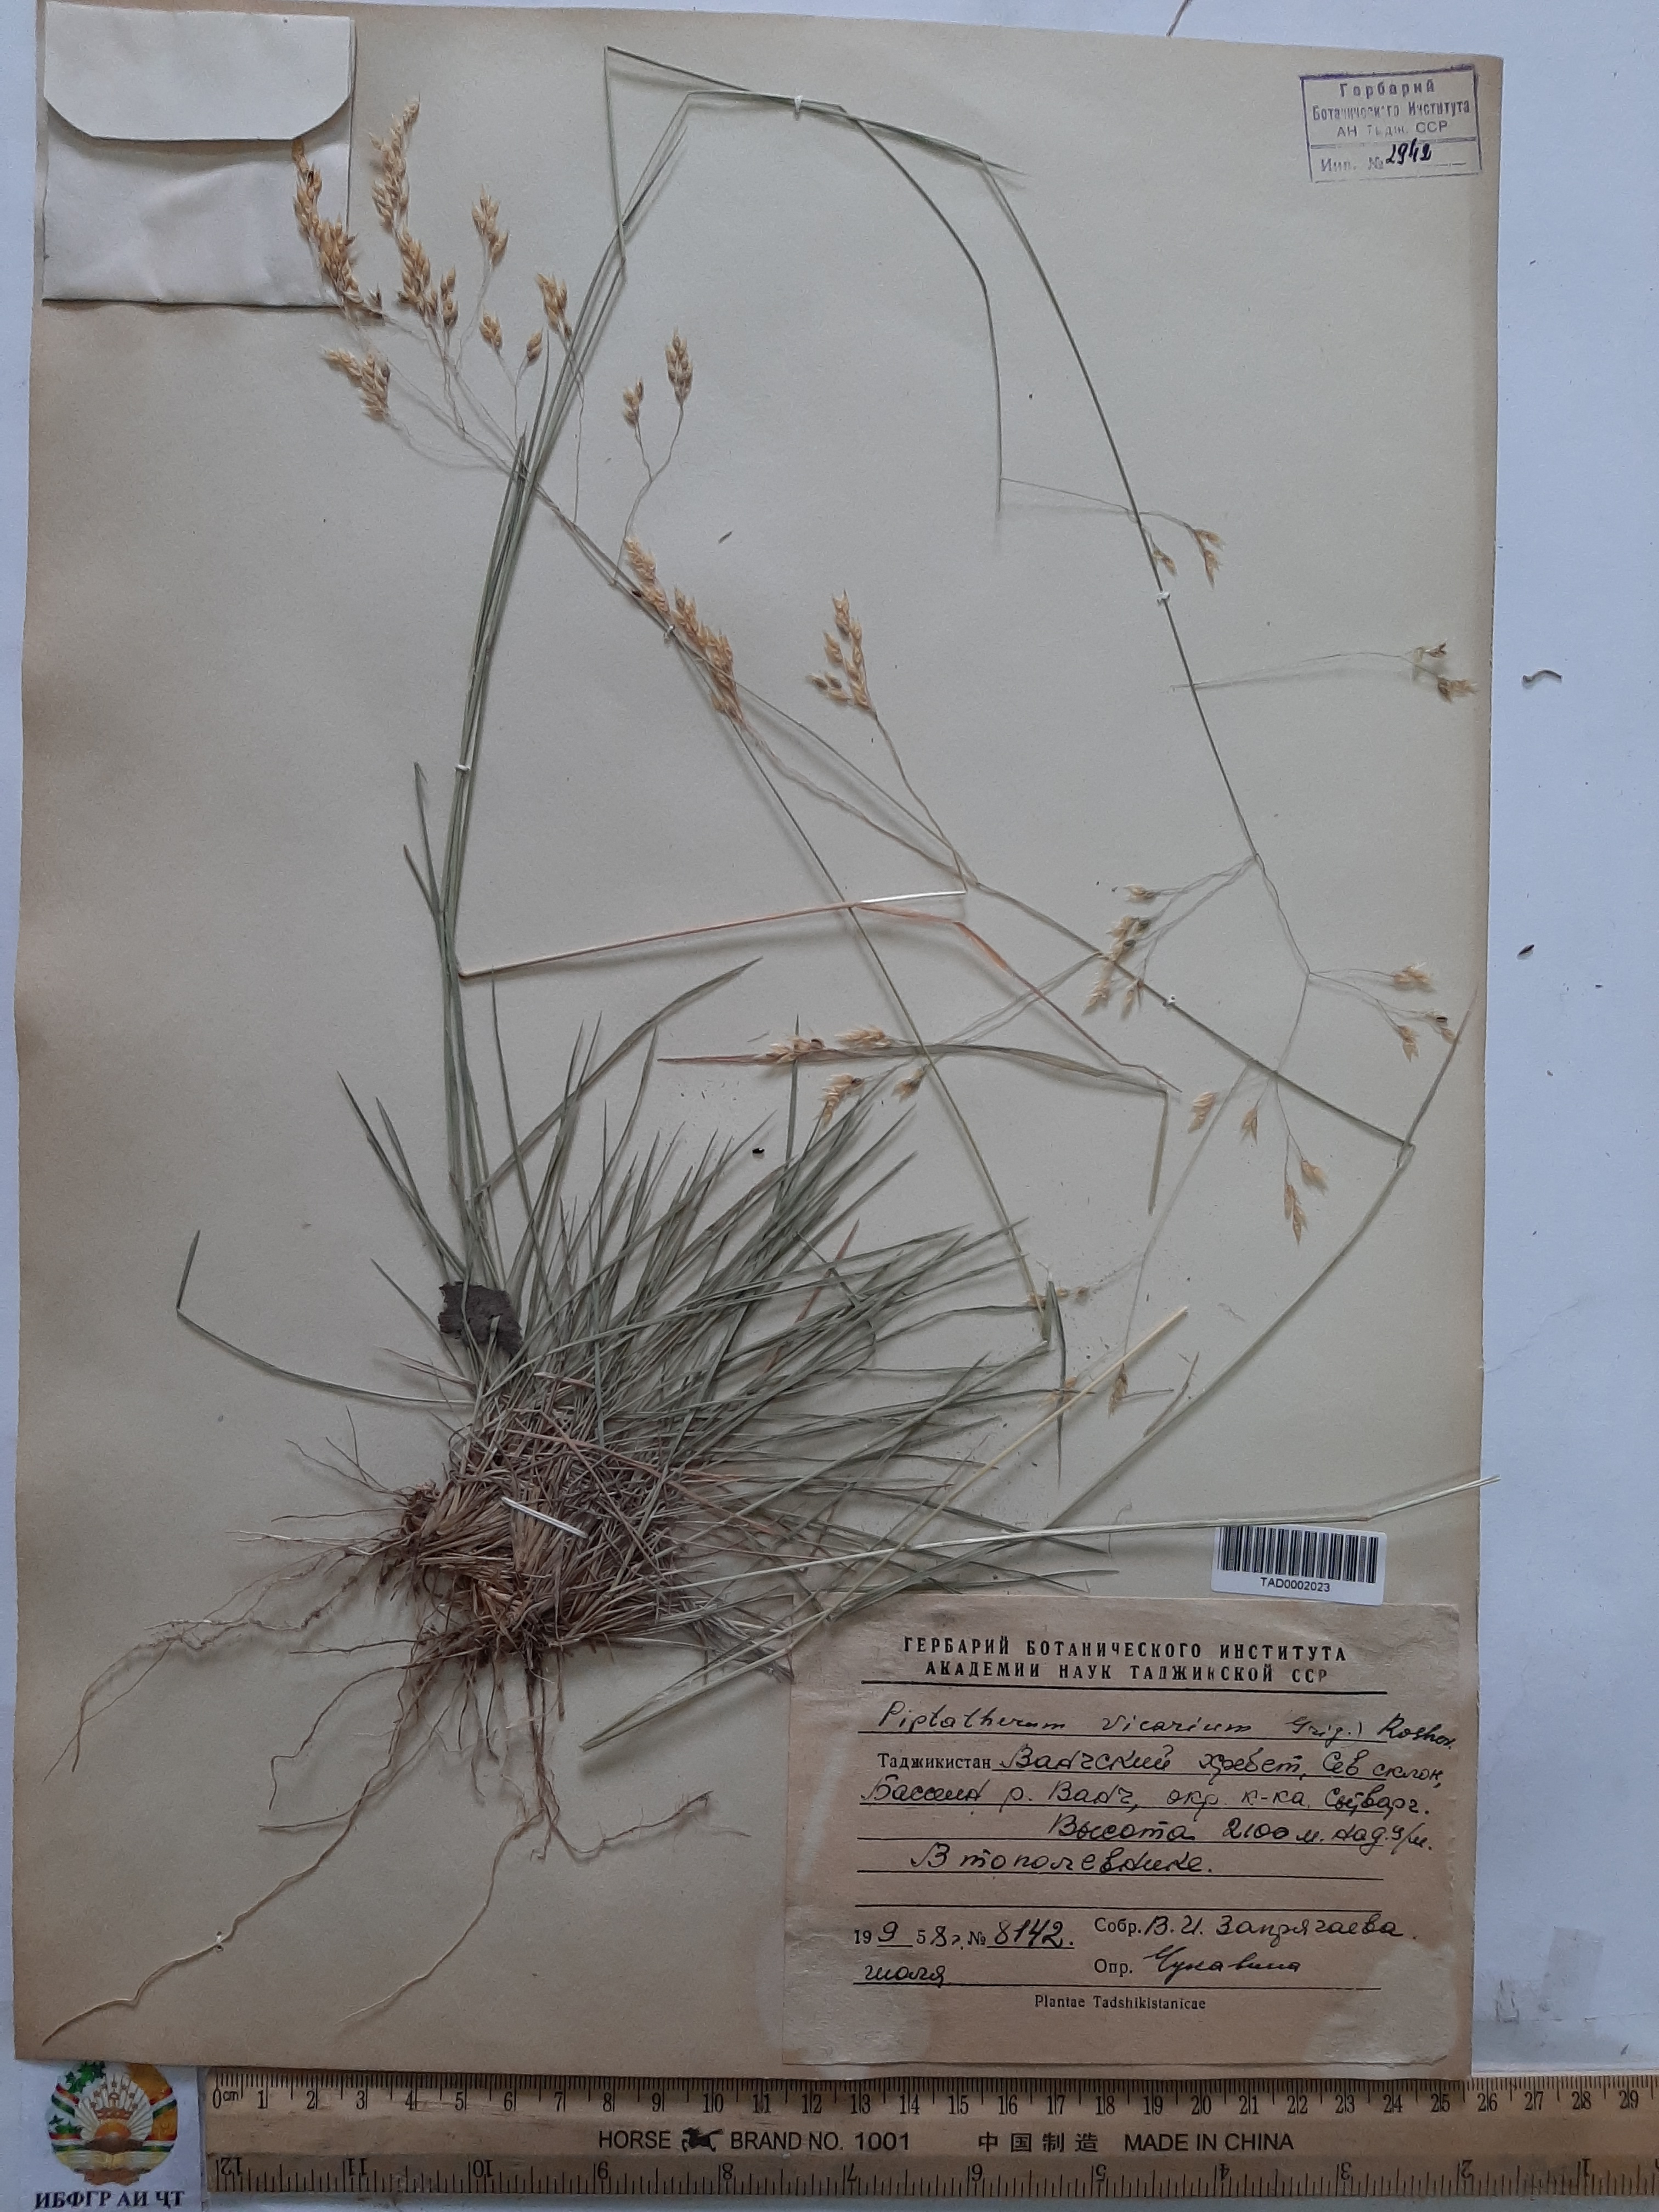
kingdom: Plantae
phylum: Tracheophyta
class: Liliopsida
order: Poales
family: Poaceae
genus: Piptatherum
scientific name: Piptatherum microcarpum
